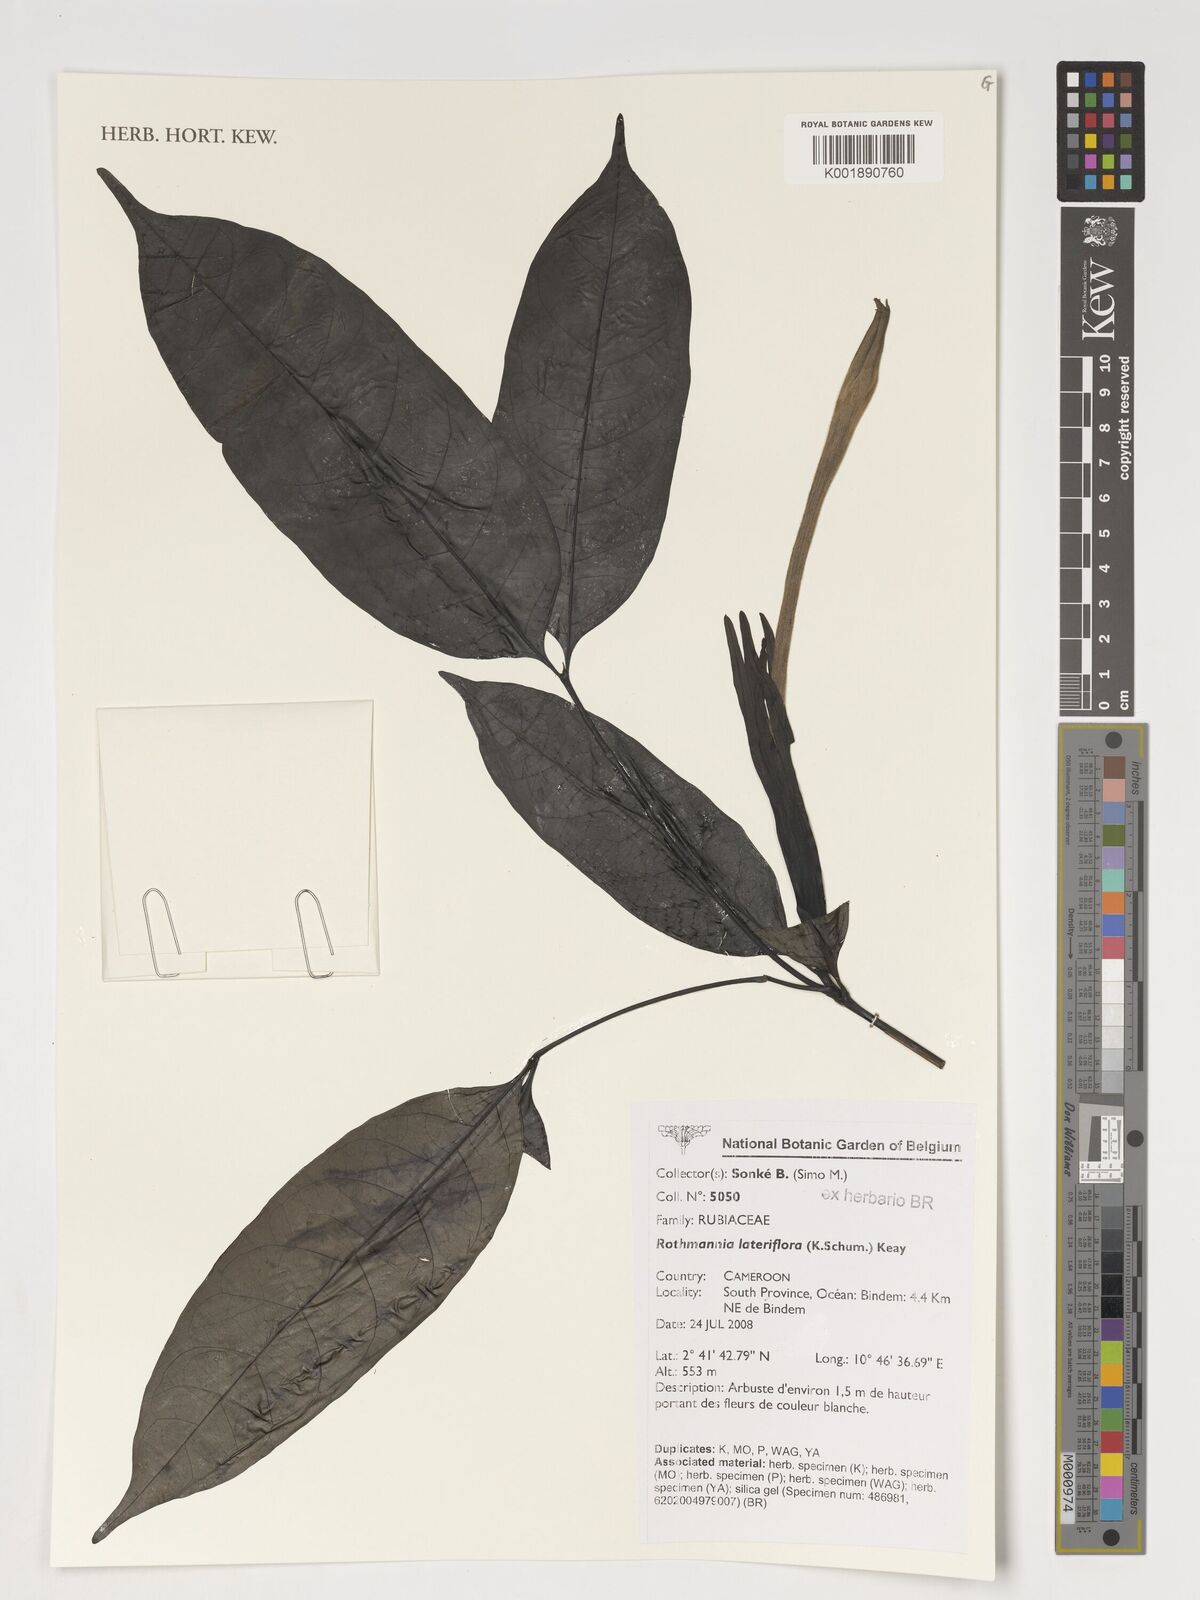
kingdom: Plantae
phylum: Tracheophyta
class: Magnoliopsida
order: Gentianales
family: Rubiaceae
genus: Rothmannia
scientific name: Rothmannia lateriflora
